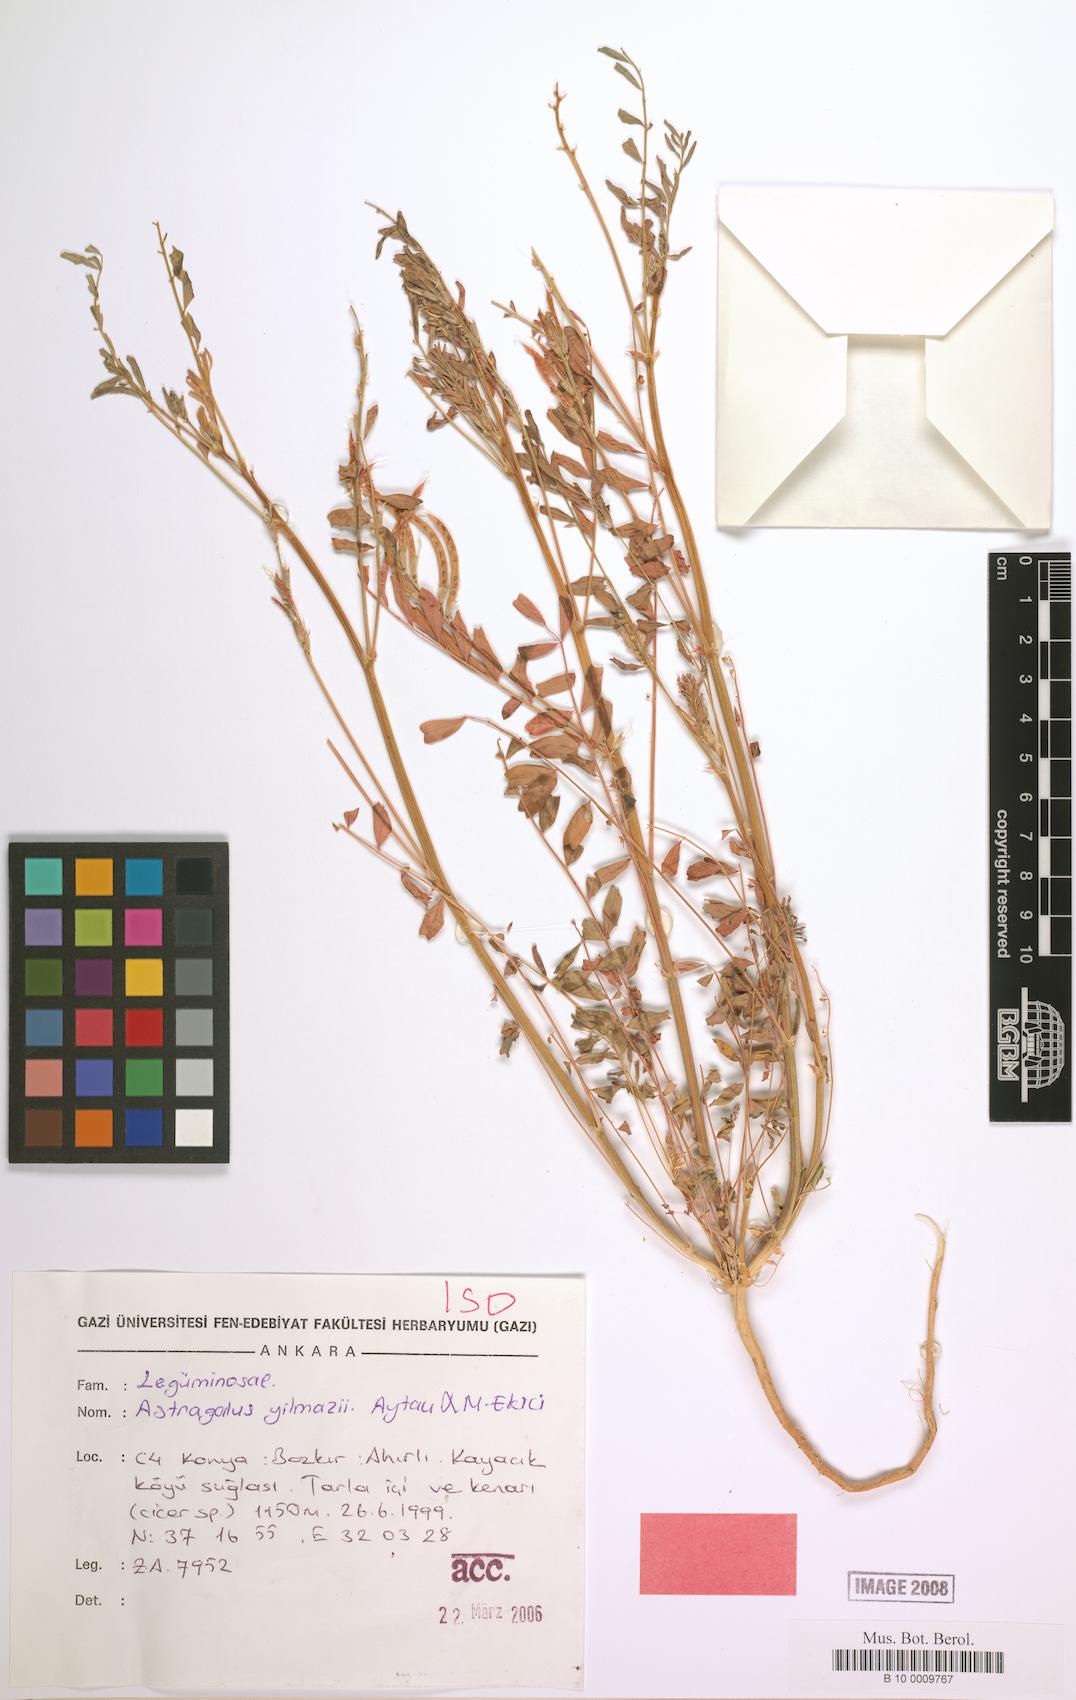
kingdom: Plantae
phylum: Tracheophyta
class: Magnoliopsida
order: Fabales
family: Fabaceae
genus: Astragalus
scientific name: Astragalus yilmazii
